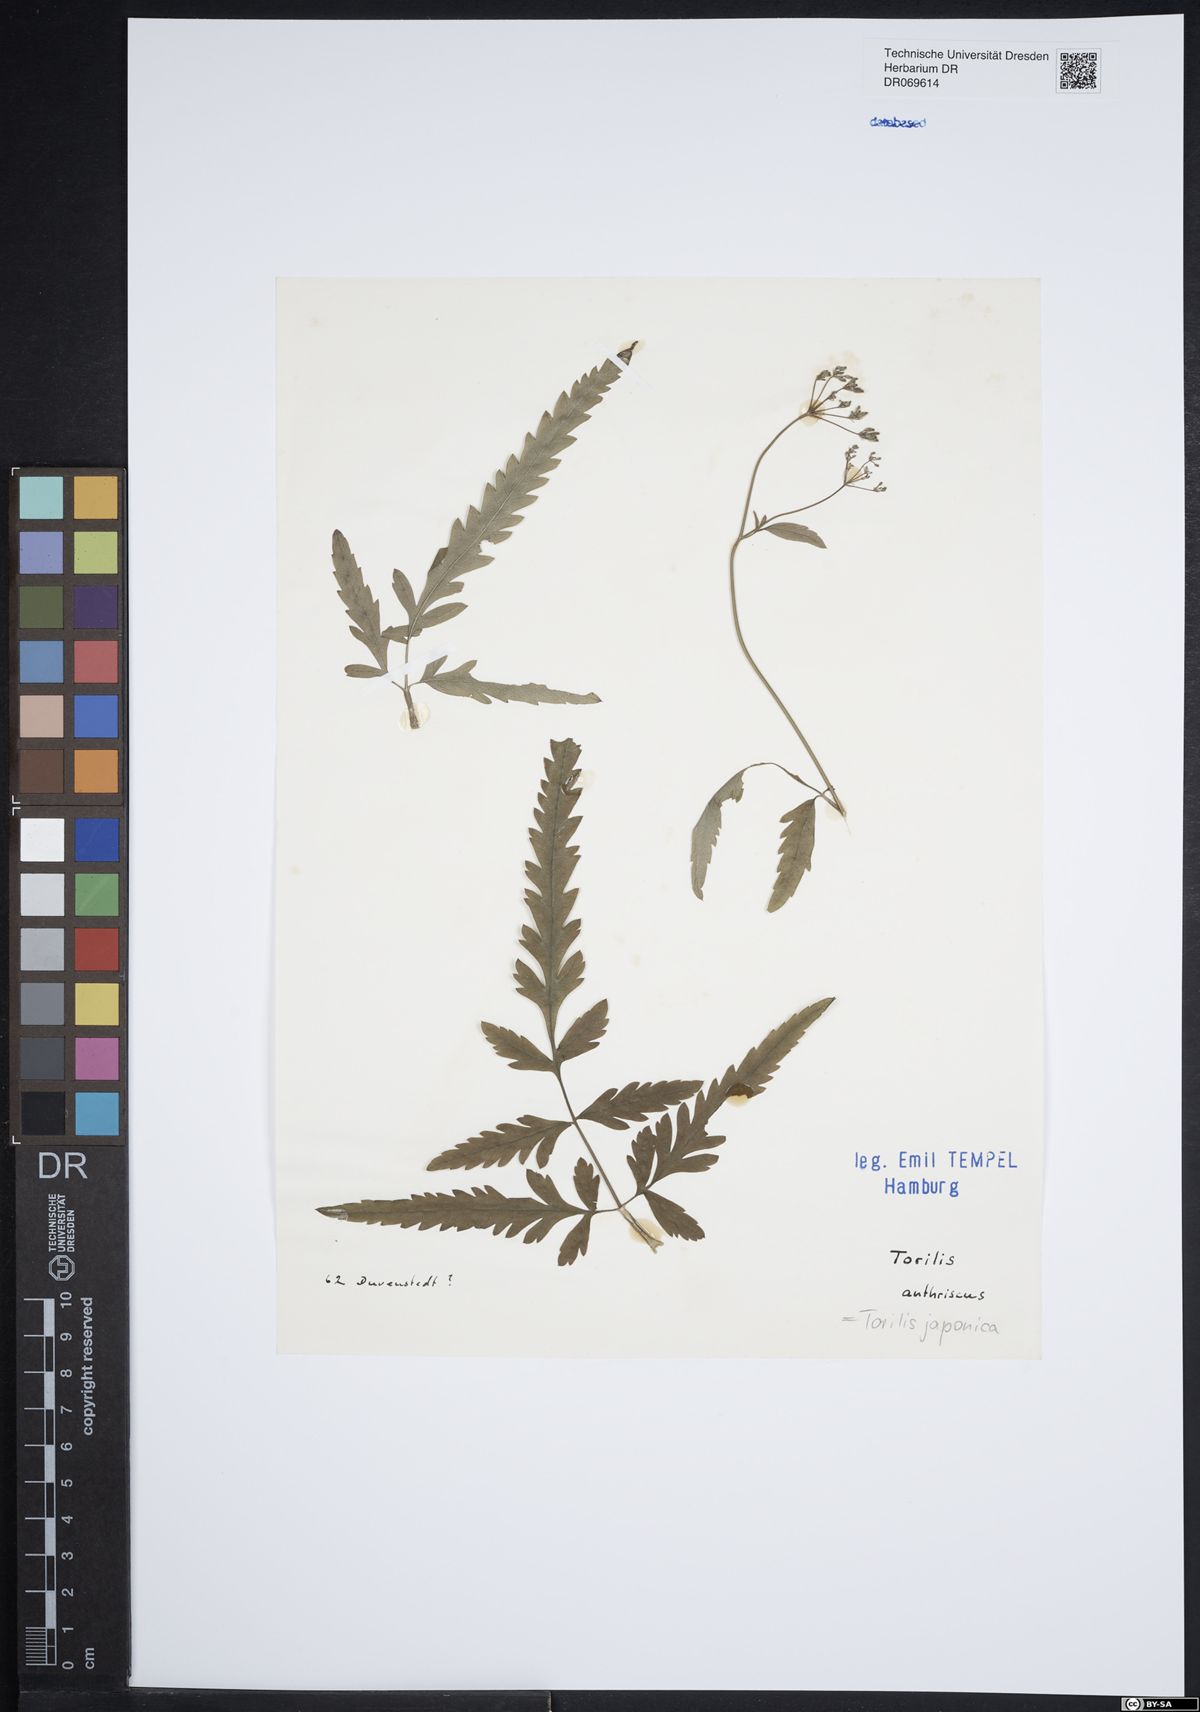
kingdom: Plantae
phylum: Tracheophyta
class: Magnoliopsida
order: Apiales
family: Apiaceae
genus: Torilis
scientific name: Torilis japonica
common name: Upright hedge-parsley
